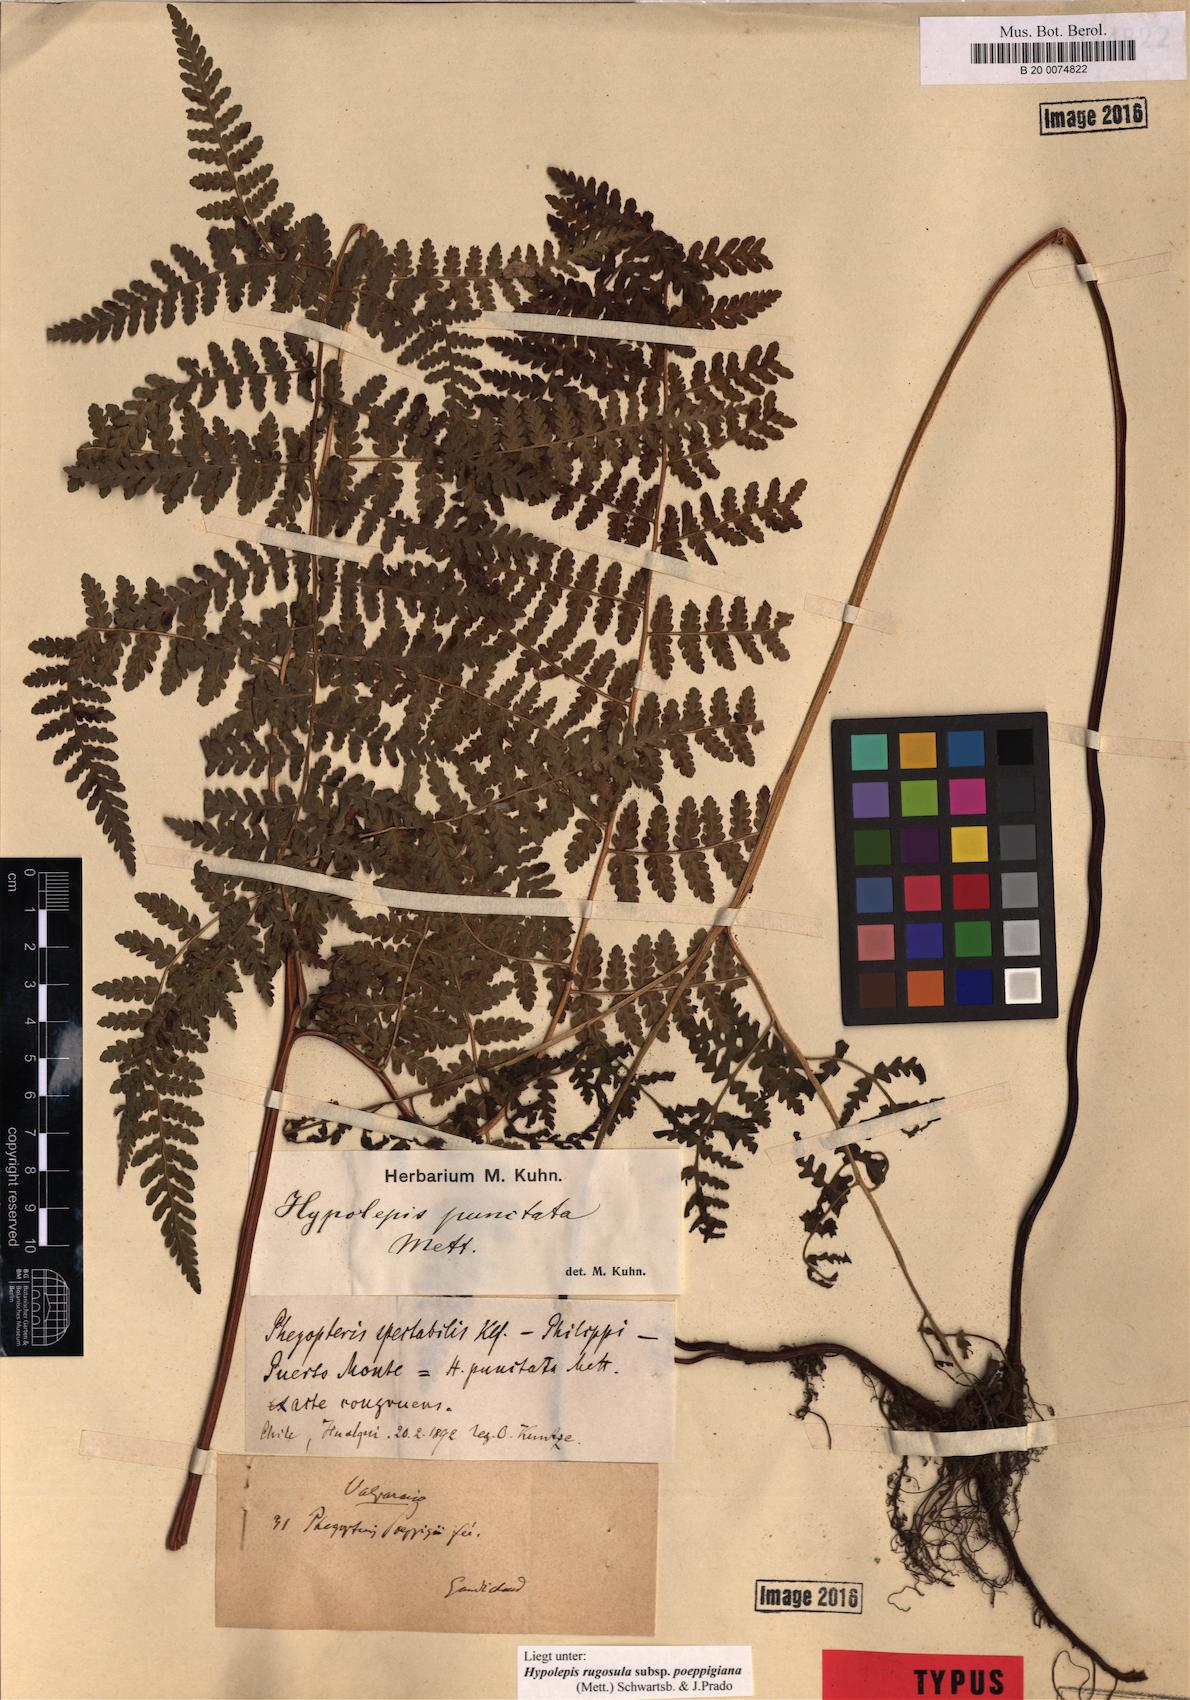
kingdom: Plantae
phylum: Tracheophyta
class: Polypodiopsida
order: Polypodiales
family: Dennstaedtiaceae
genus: Hypolepis
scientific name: Hypolepis rugosula
